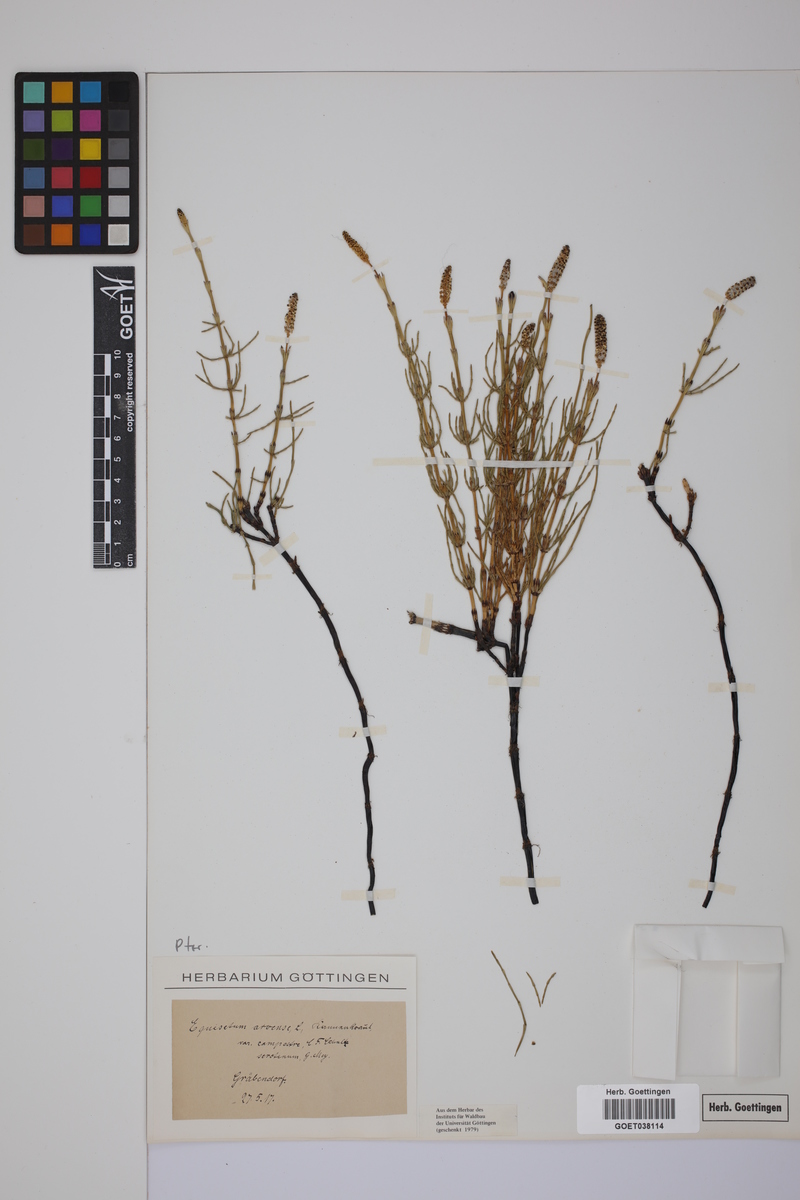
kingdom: Plantae
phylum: Tracheophyta
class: Polypodiopsida
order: Equisetales
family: Equisetaceae
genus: Equisetum
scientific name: Equisetum arvense
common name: Field horsetail
